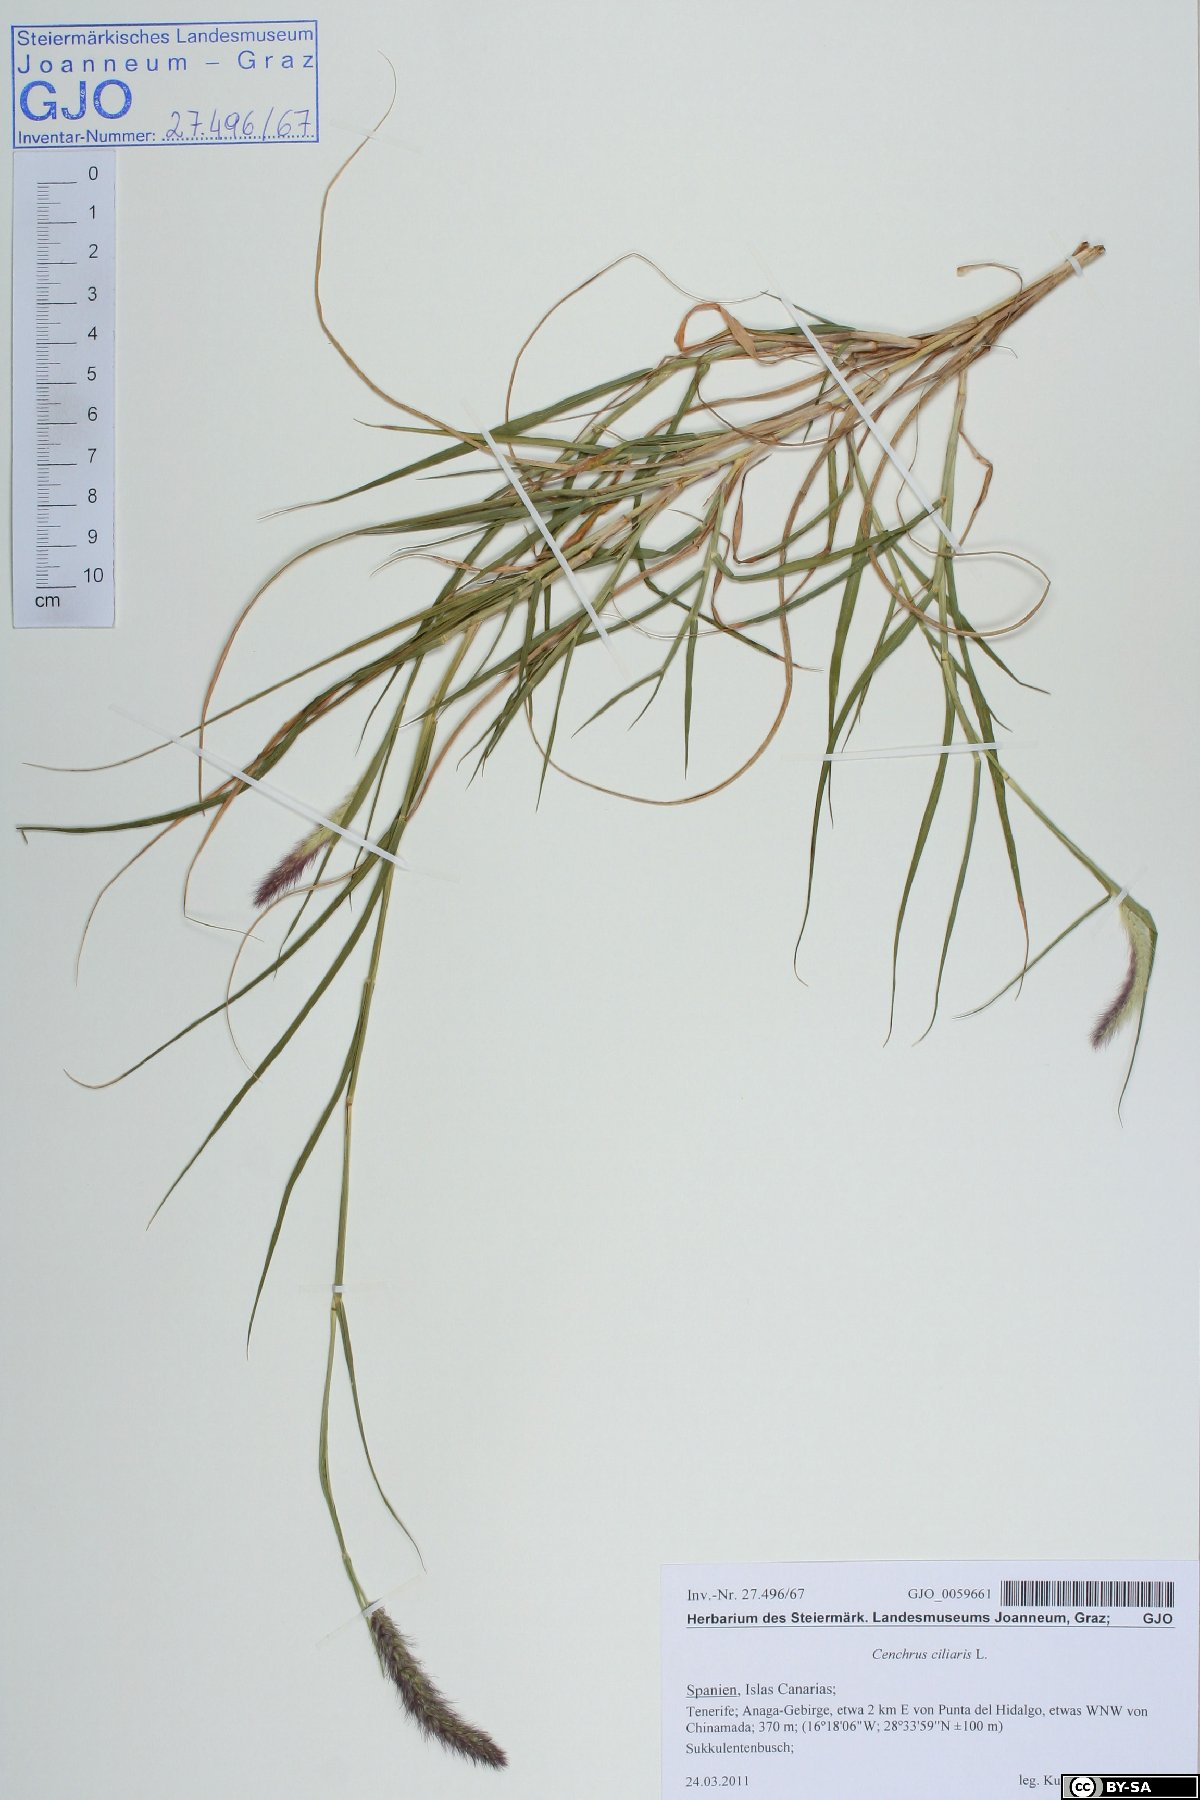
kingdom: Plantae
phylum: Tracheophyta
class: Liliopsida
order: Poales
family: Poaceae
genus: Cenchrus
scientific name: Cenchrus ciliaris
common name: Buffelgrass
